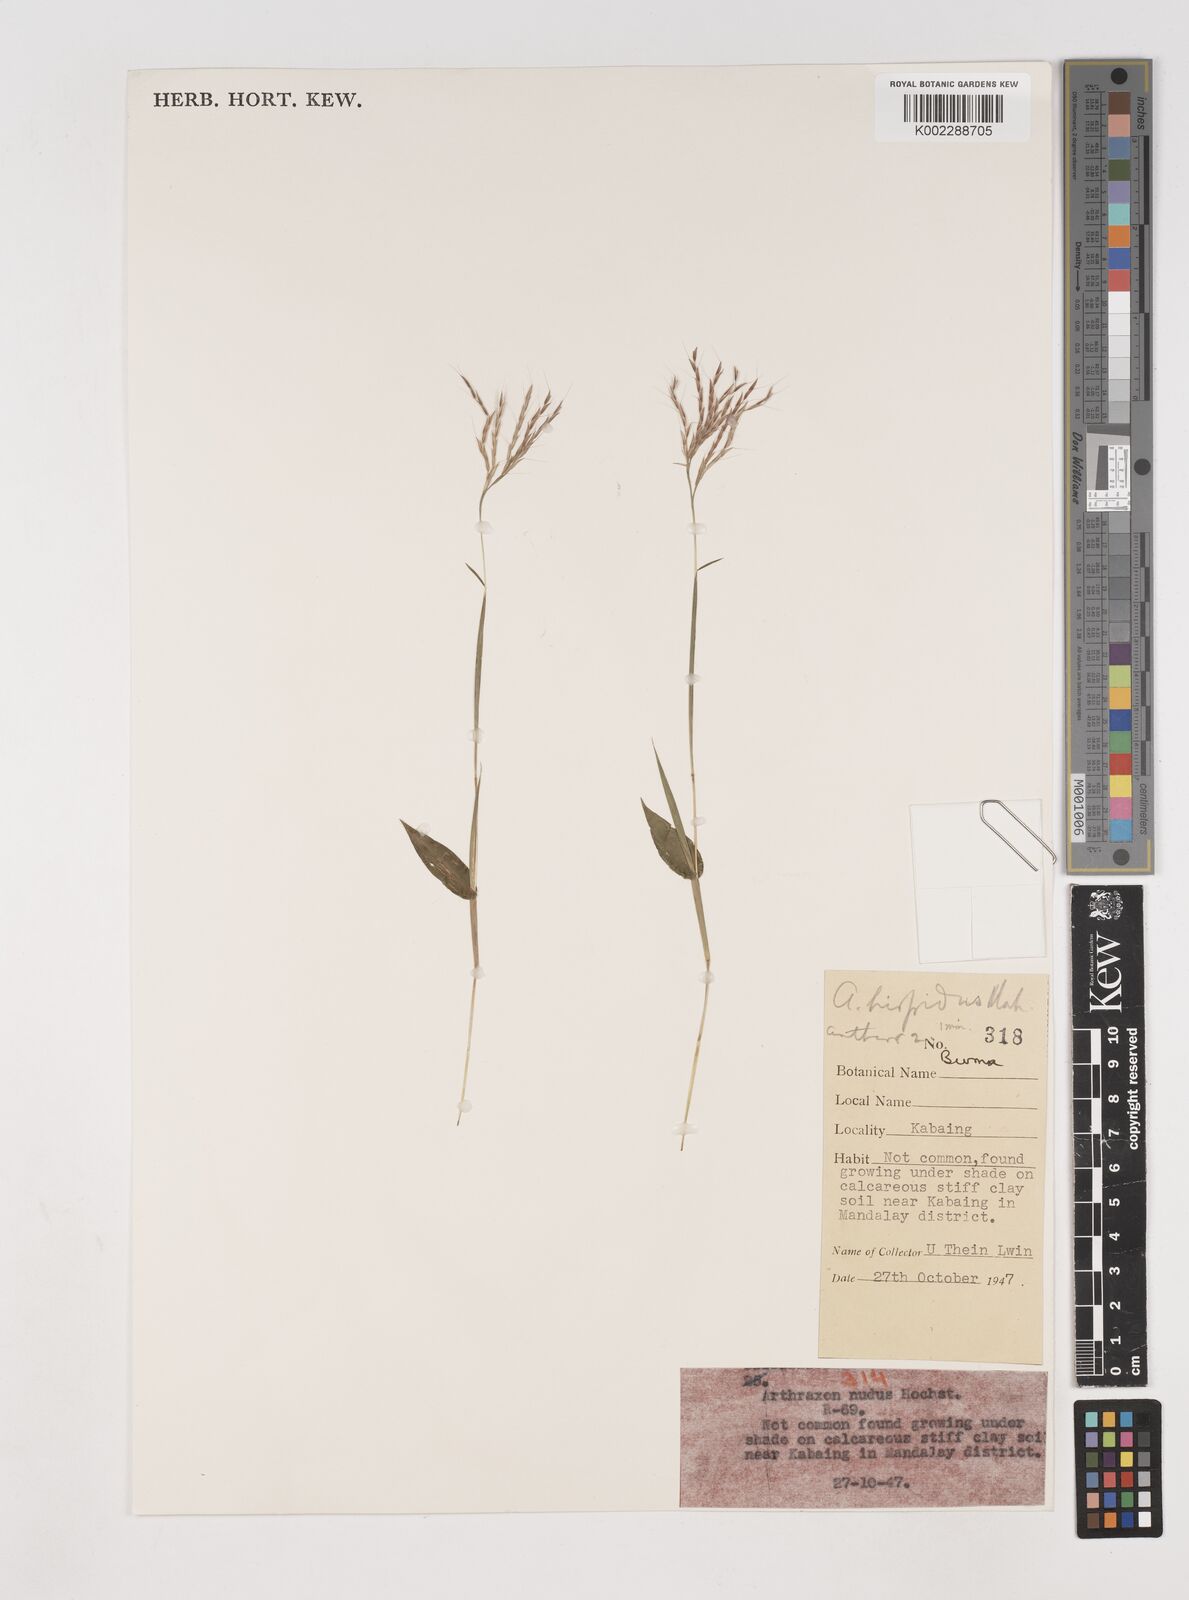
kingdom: Plantae
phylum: Tracheophyta
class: Liliopsida
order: Poales
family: Poaceae
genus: Arthraxon
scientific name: Arthraxon hispidus
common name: Small carpgrass
